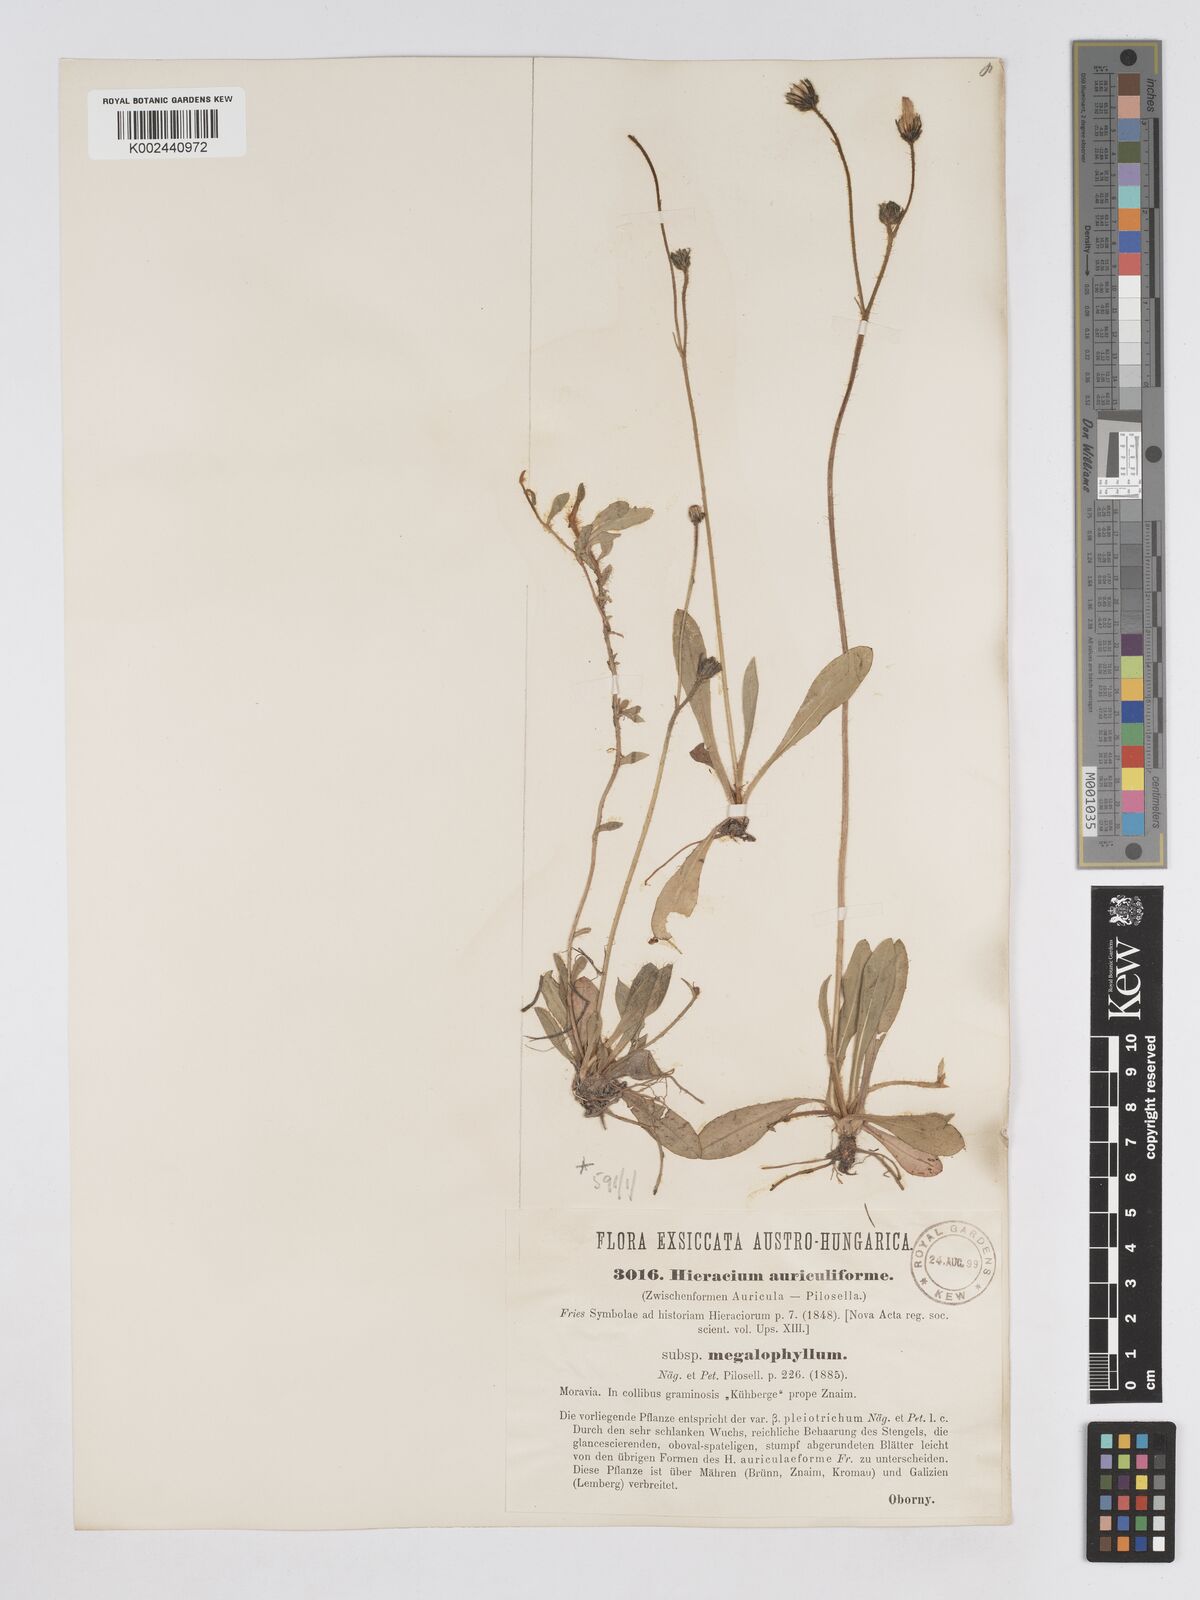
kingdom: Plantae
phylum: Tracheophyta
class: Magnoliopsida
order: Asterales
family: Asteraceae
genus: Pilosella
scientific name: Pilosella schultesii
